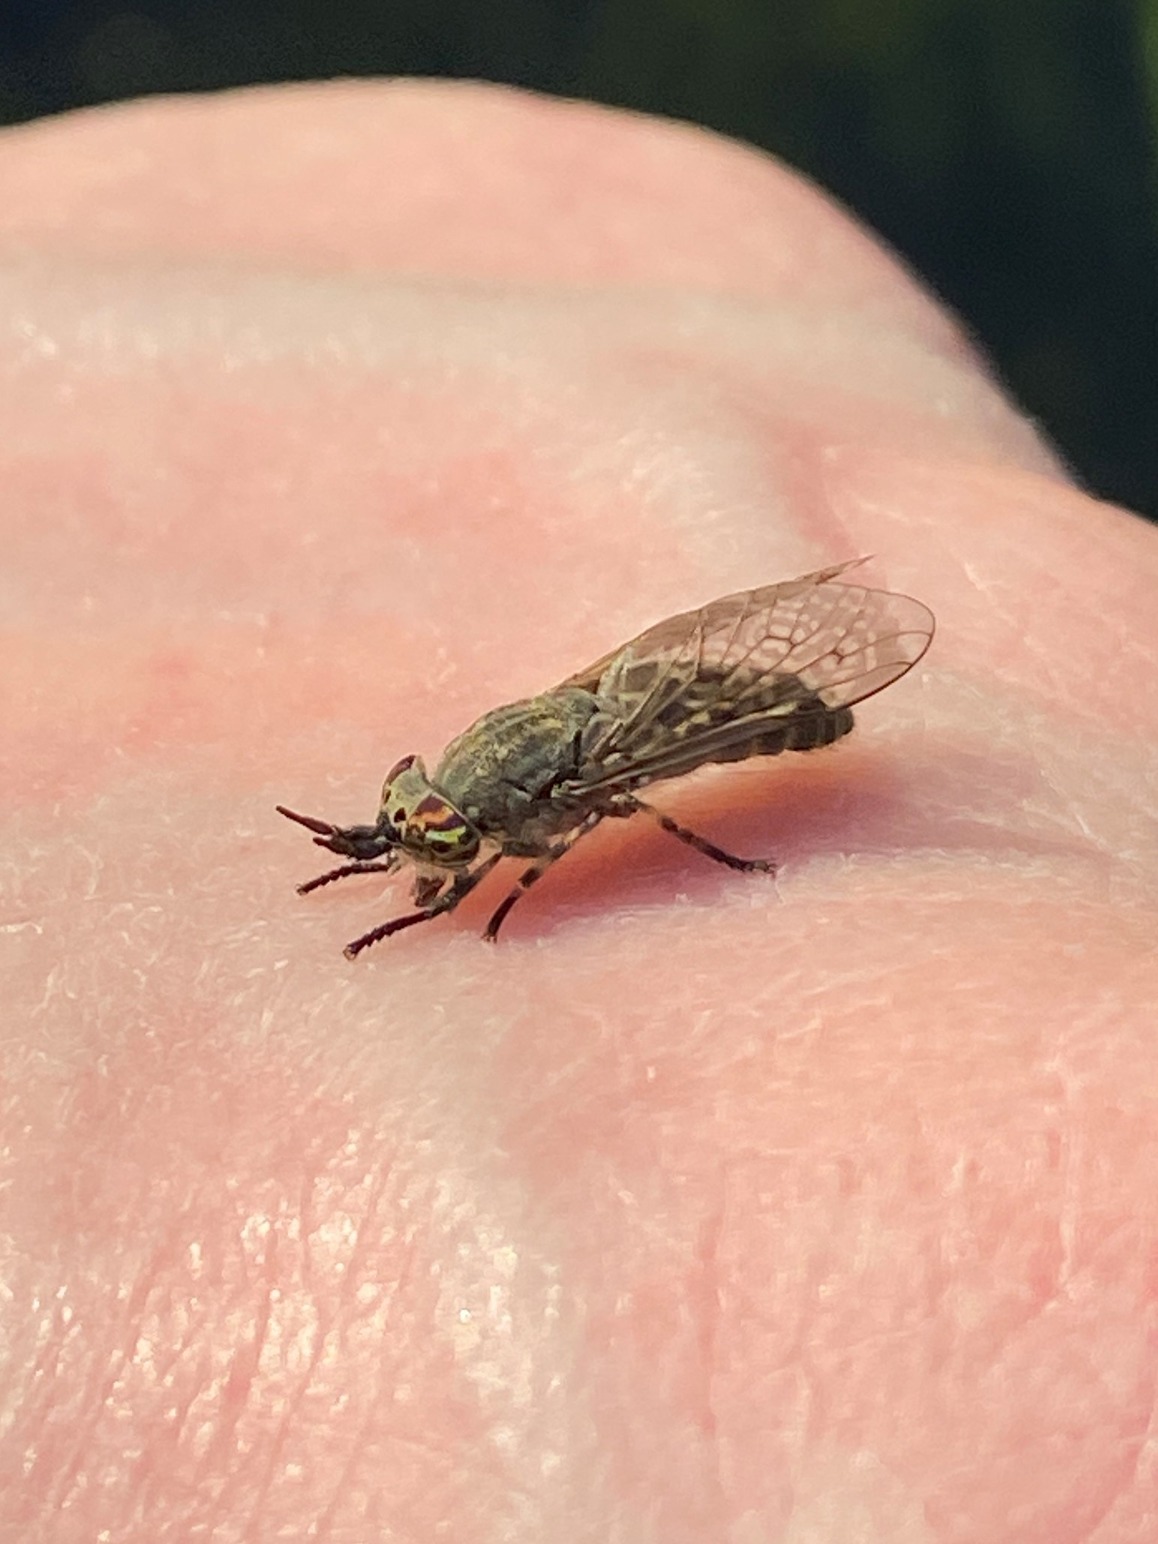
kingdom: Animalia
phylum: Arthropoda
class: Insecta
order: Diptera
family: Tabanidae
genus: Haematopota
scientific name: Haematopota pluvialis
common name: Regnklæg
